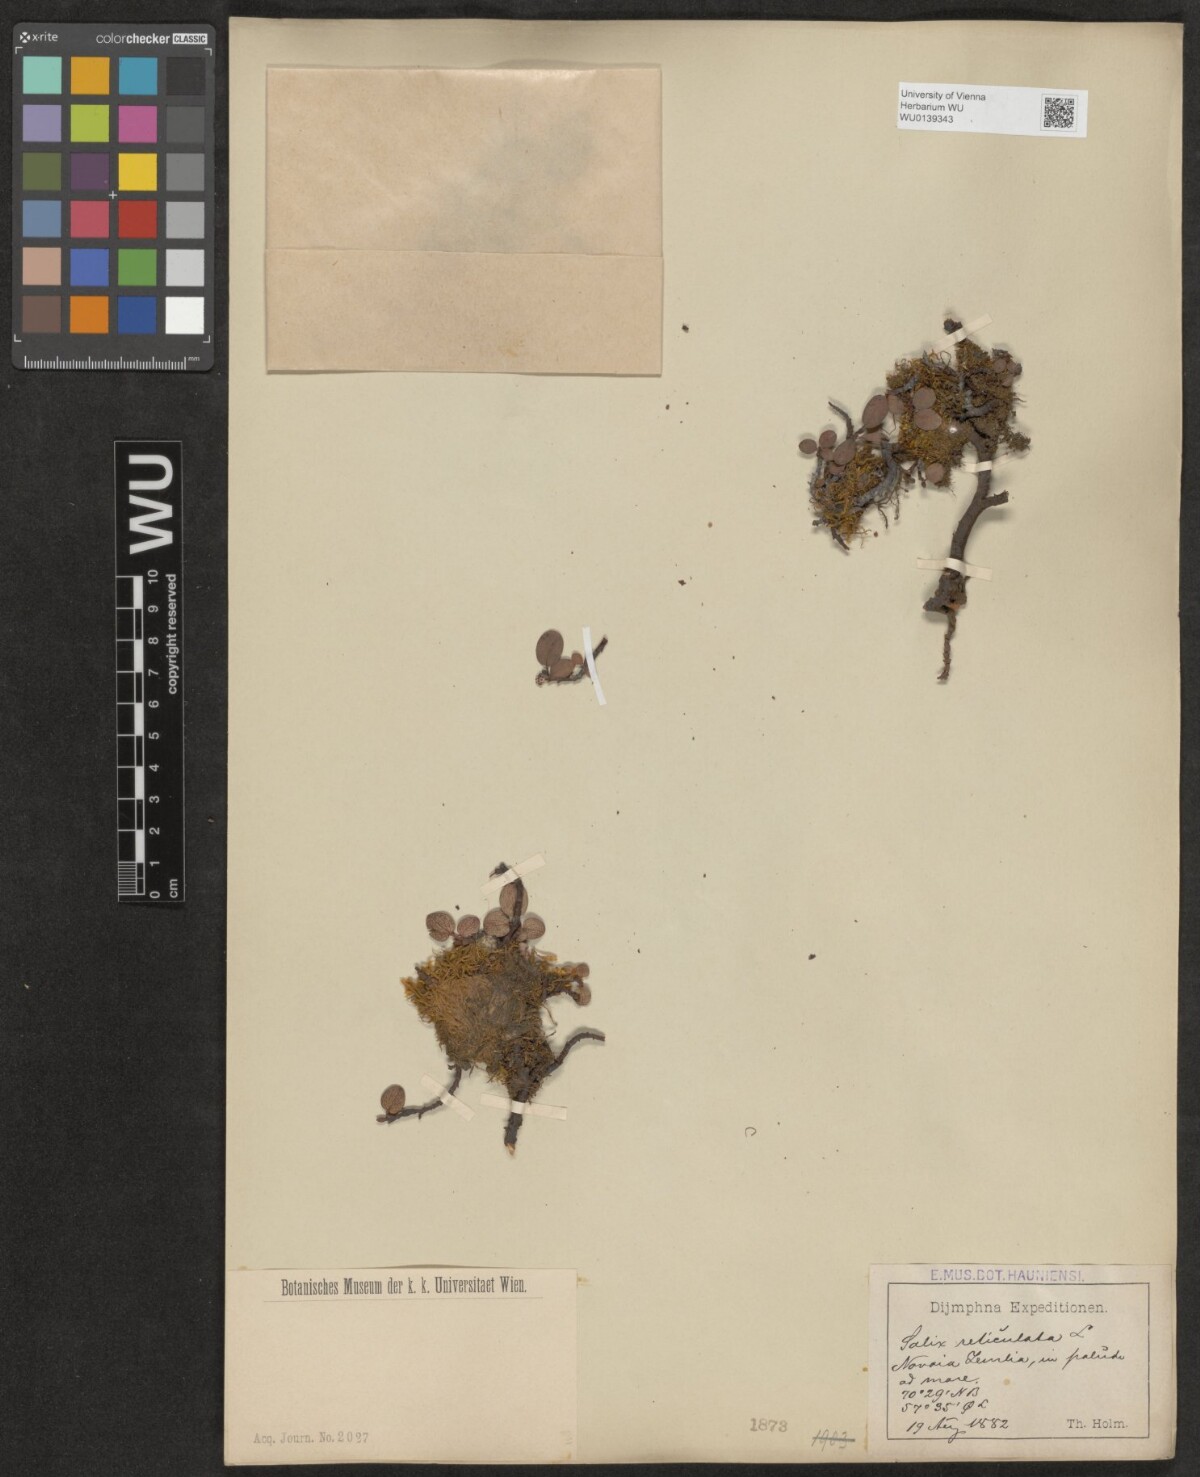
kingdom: Plantae
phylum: Tracheophyta
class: Magnoliopsida
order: Malpighiales
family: Salicaceae
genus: Salix
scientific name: Salix reticulata
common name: Net-leaved willow
